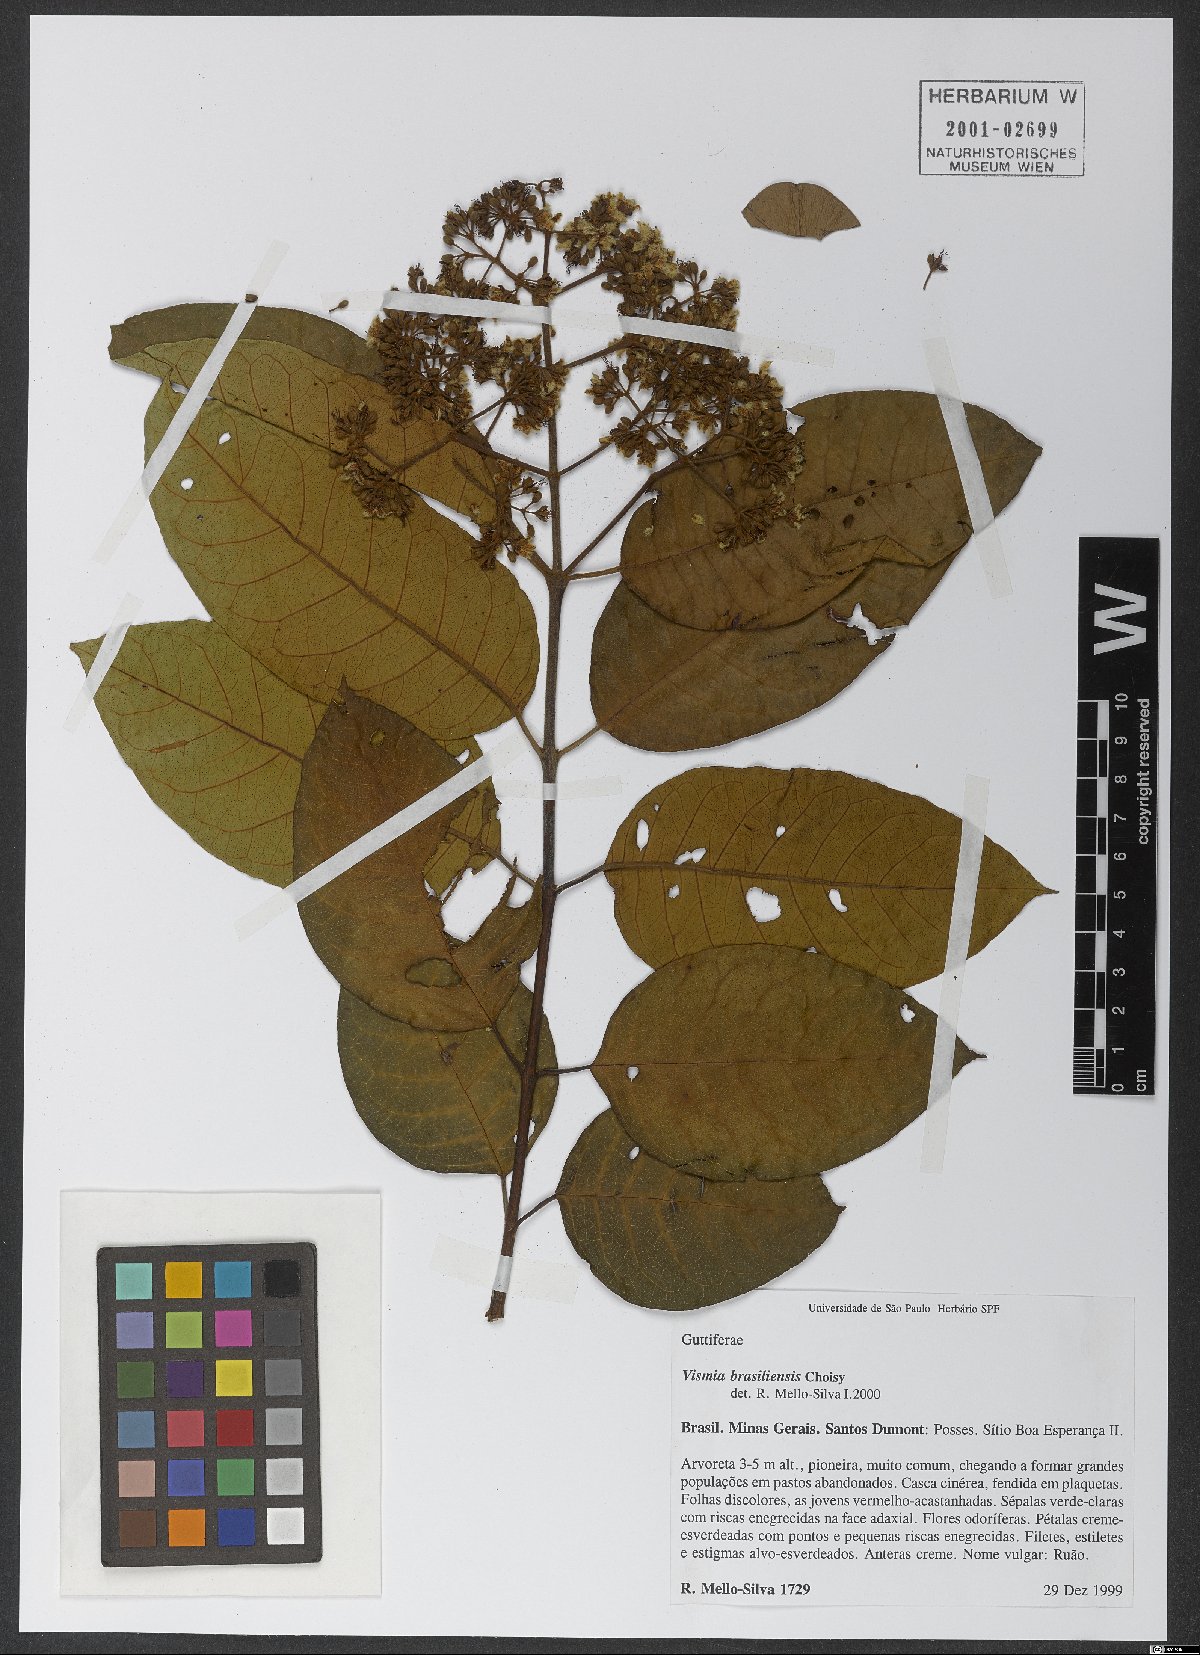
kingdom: Plantae
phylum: Tracheophyta
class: Magnoliopsida
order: Malpighiales
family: Hypericaceae
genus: Vismia
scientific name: Vismia brasiliensis
